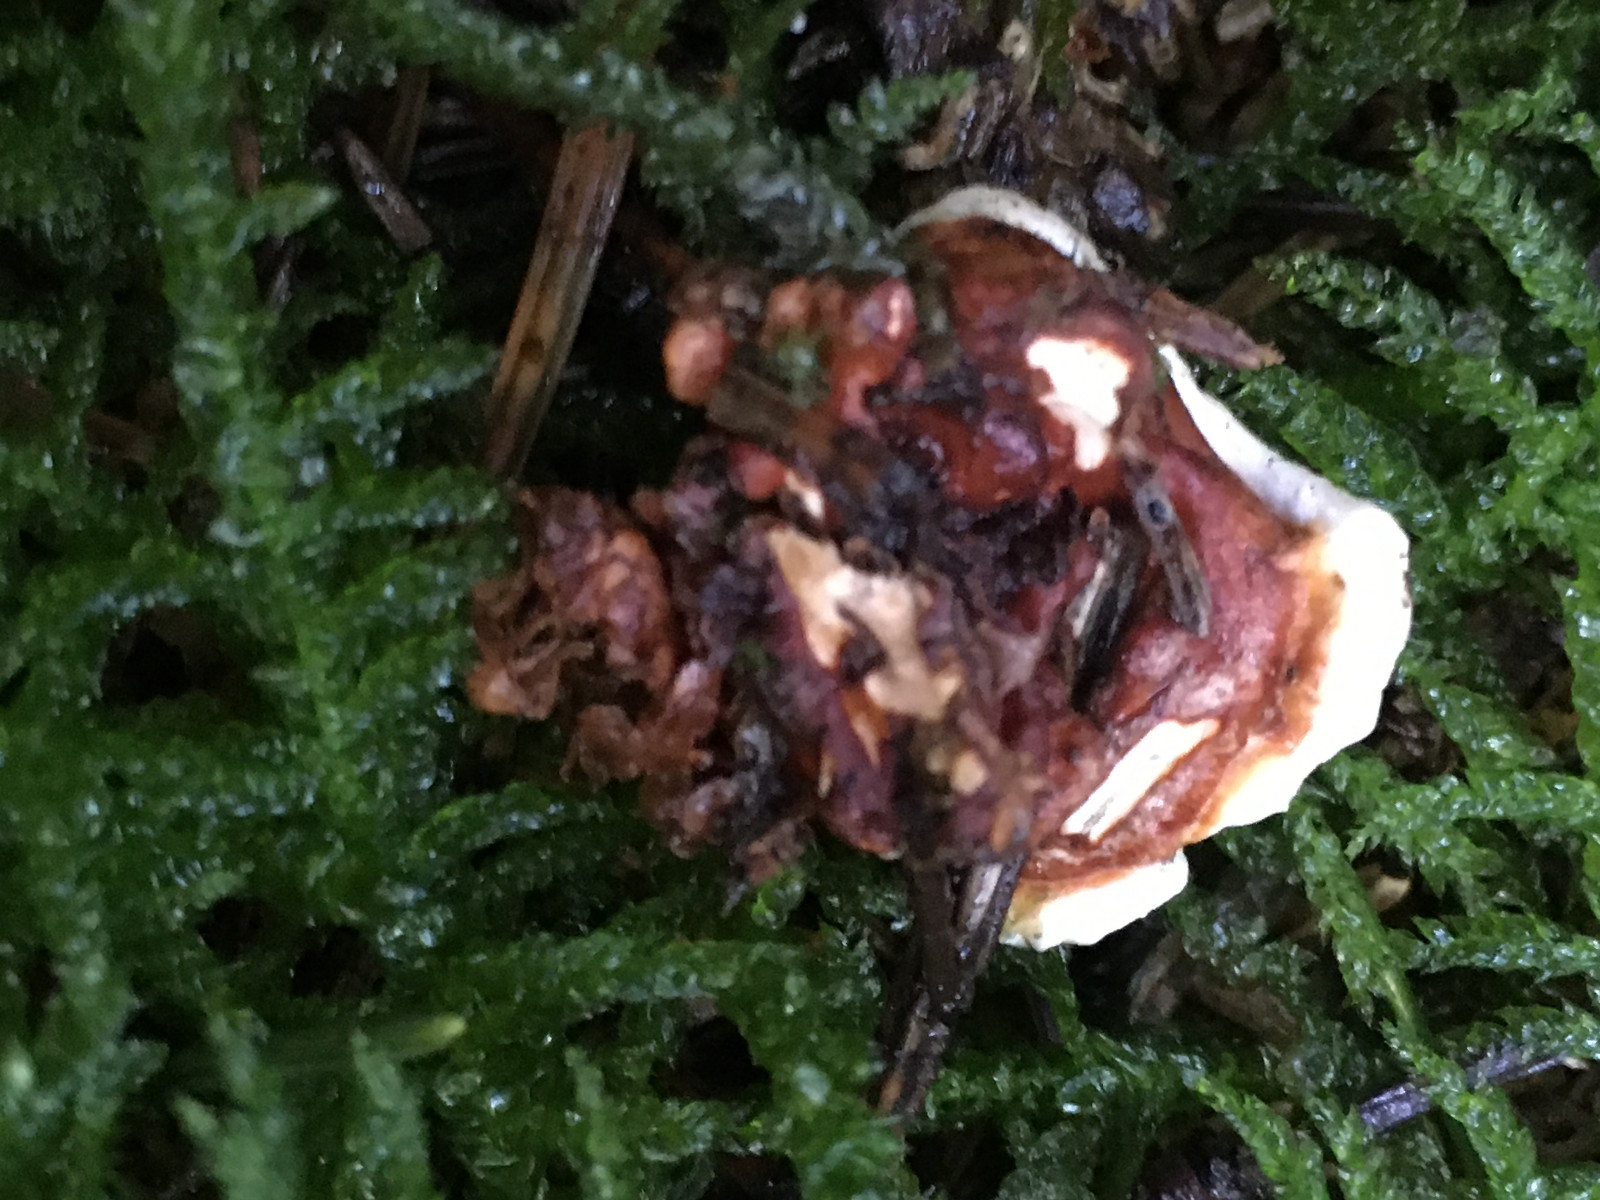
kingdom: Fungi
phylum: Basidiomycota
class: Agaricomycetes
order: Russulales
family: Bondarzewiaceae
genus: Heterobasidion
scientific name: Heterobasidion annosum
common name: almindelig rodfordærver
